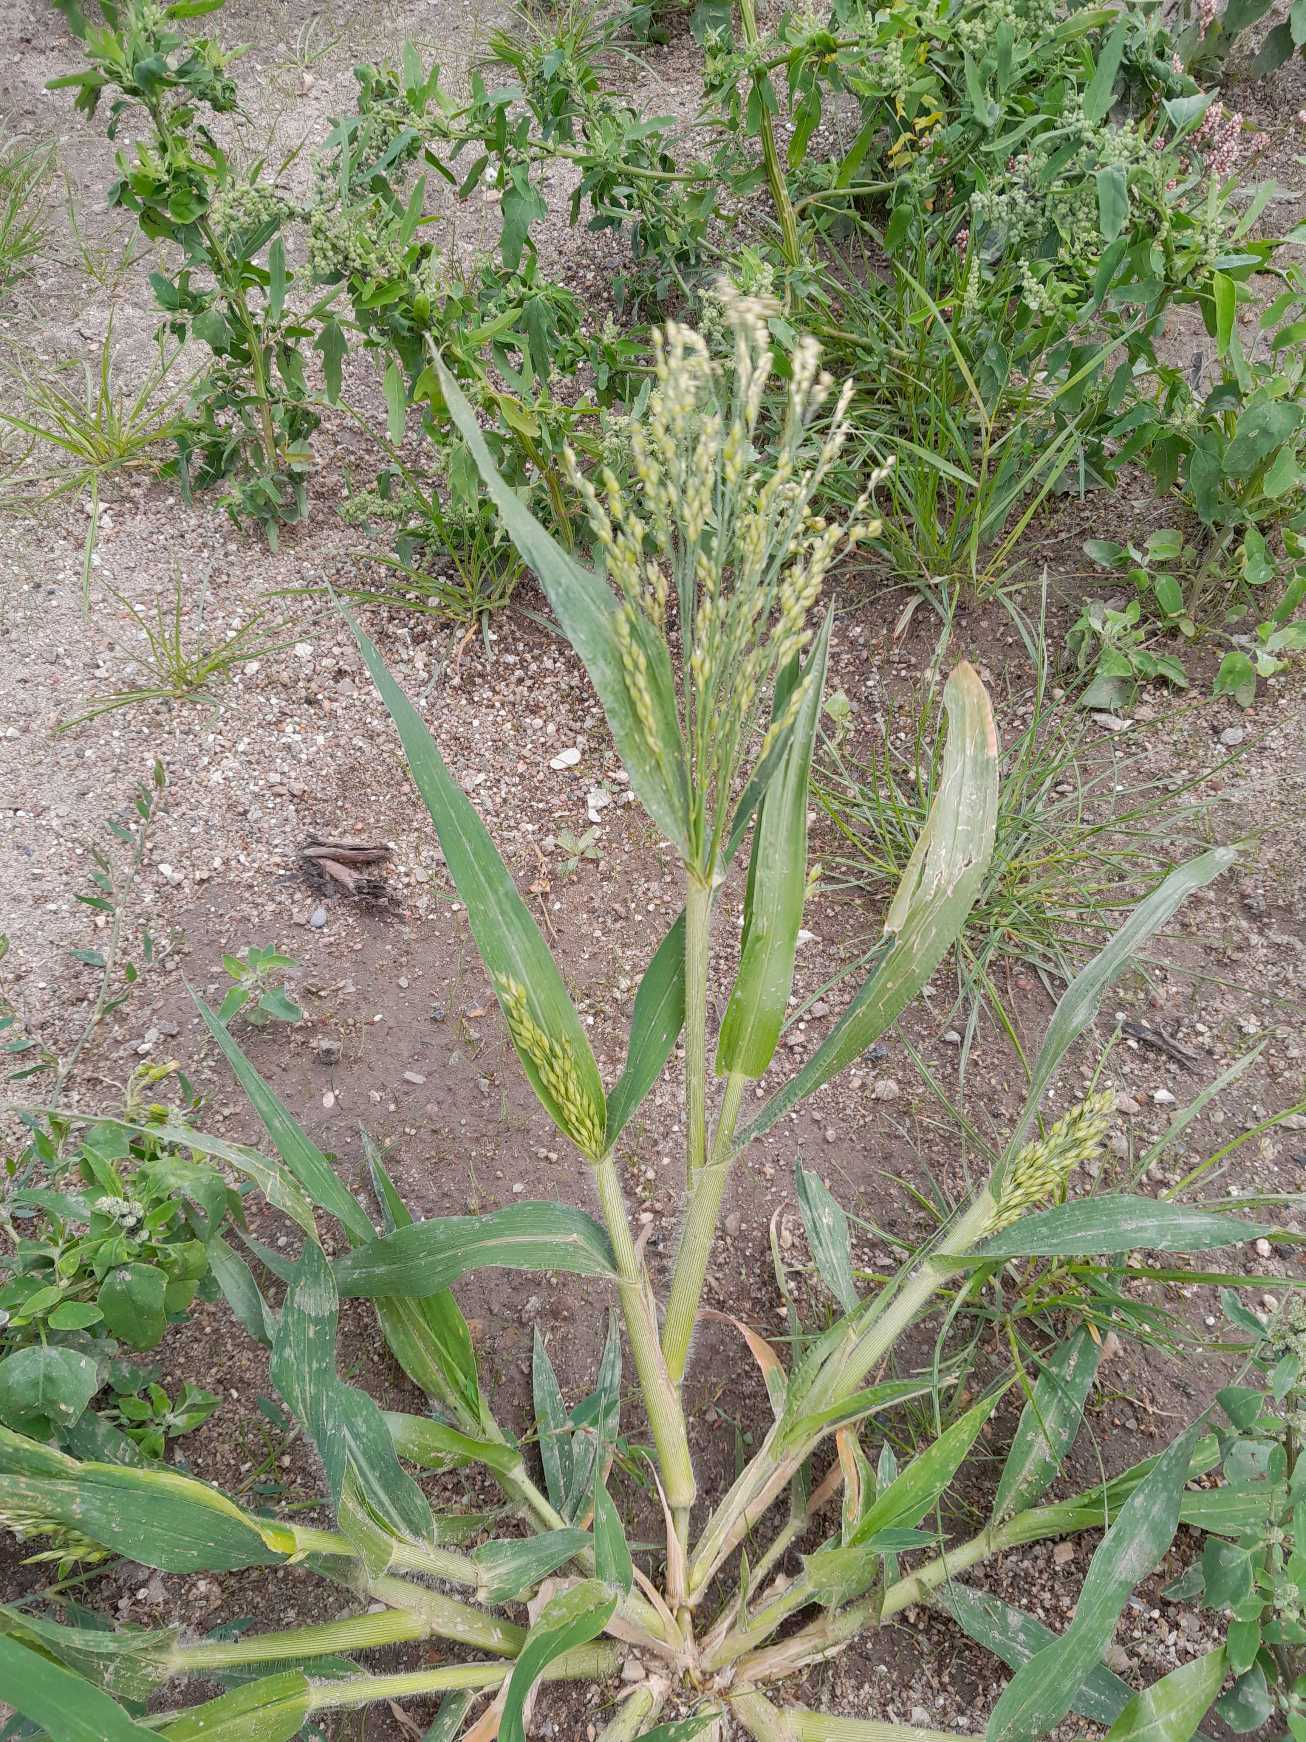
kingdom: Plantae
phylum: Tracheophyta
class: Liliopsida
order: Poales
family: Poaceae
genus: Panicum
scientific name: Panicum miliaceum
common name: Almindelig hirse
